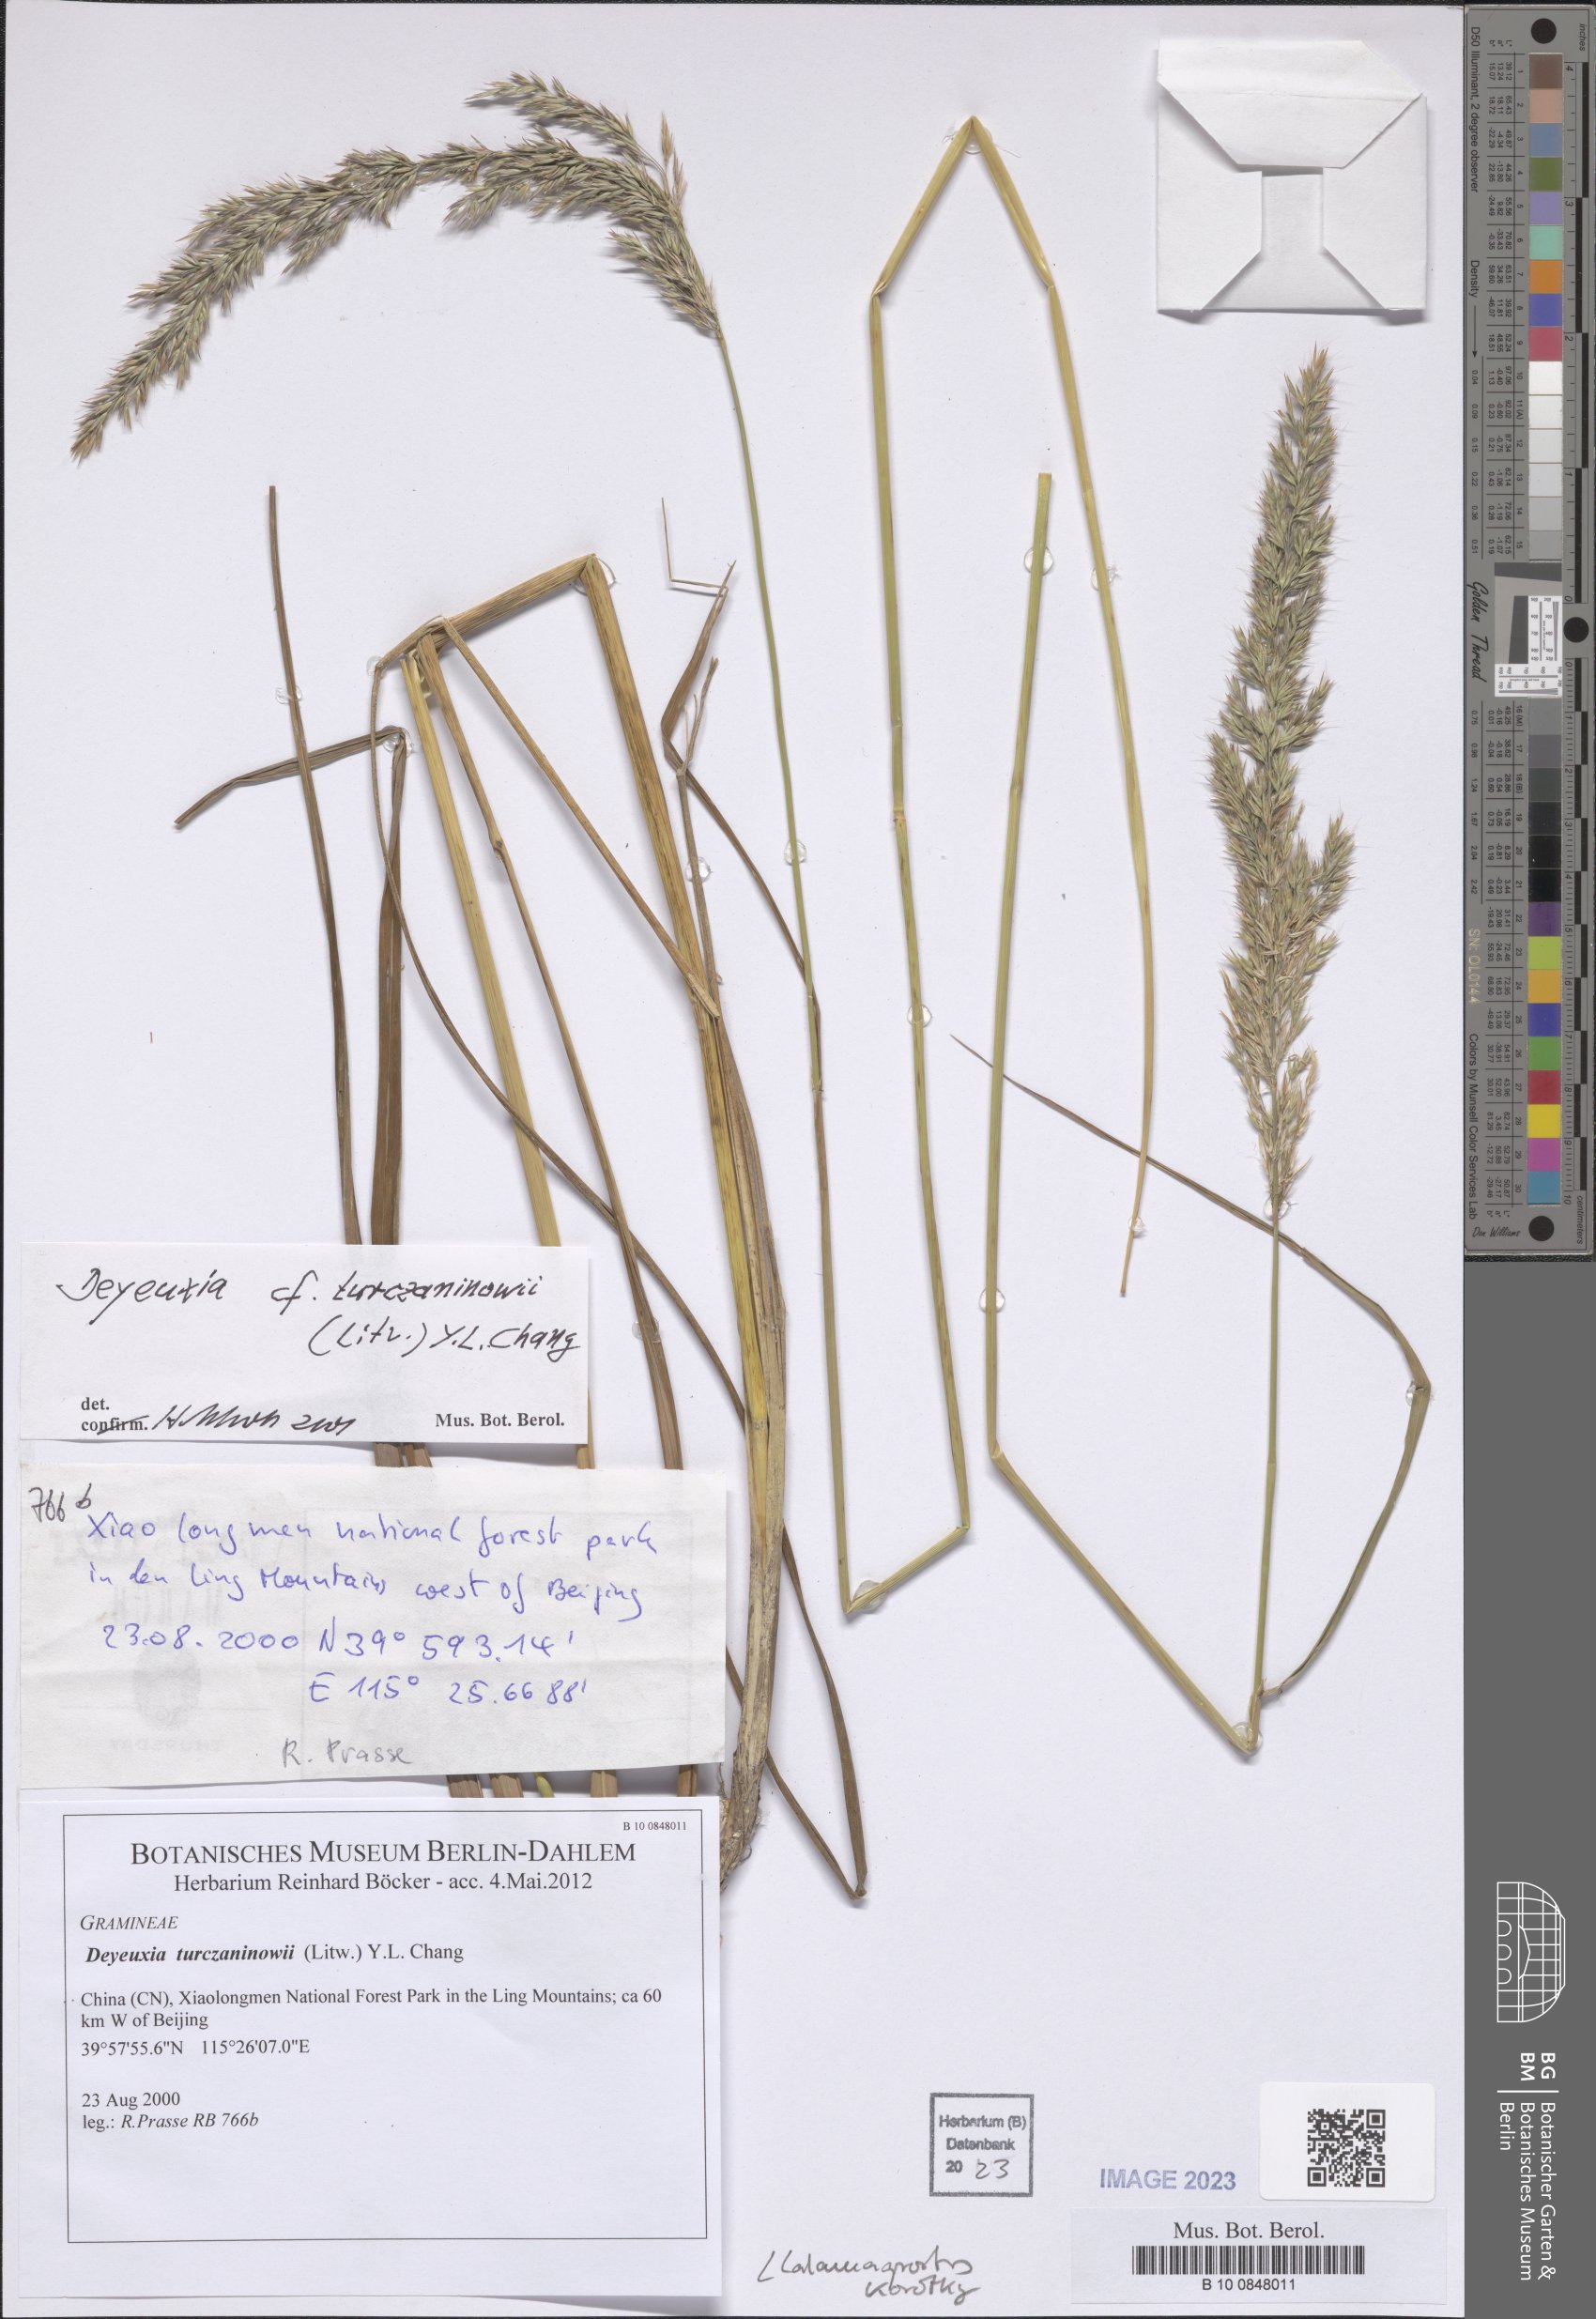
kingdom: Plantae
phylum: Tracheophyta
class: Liliopsida
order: Poales
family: Poaceae
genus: Calamagrostis
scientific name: Calamagrostis korotkyi
